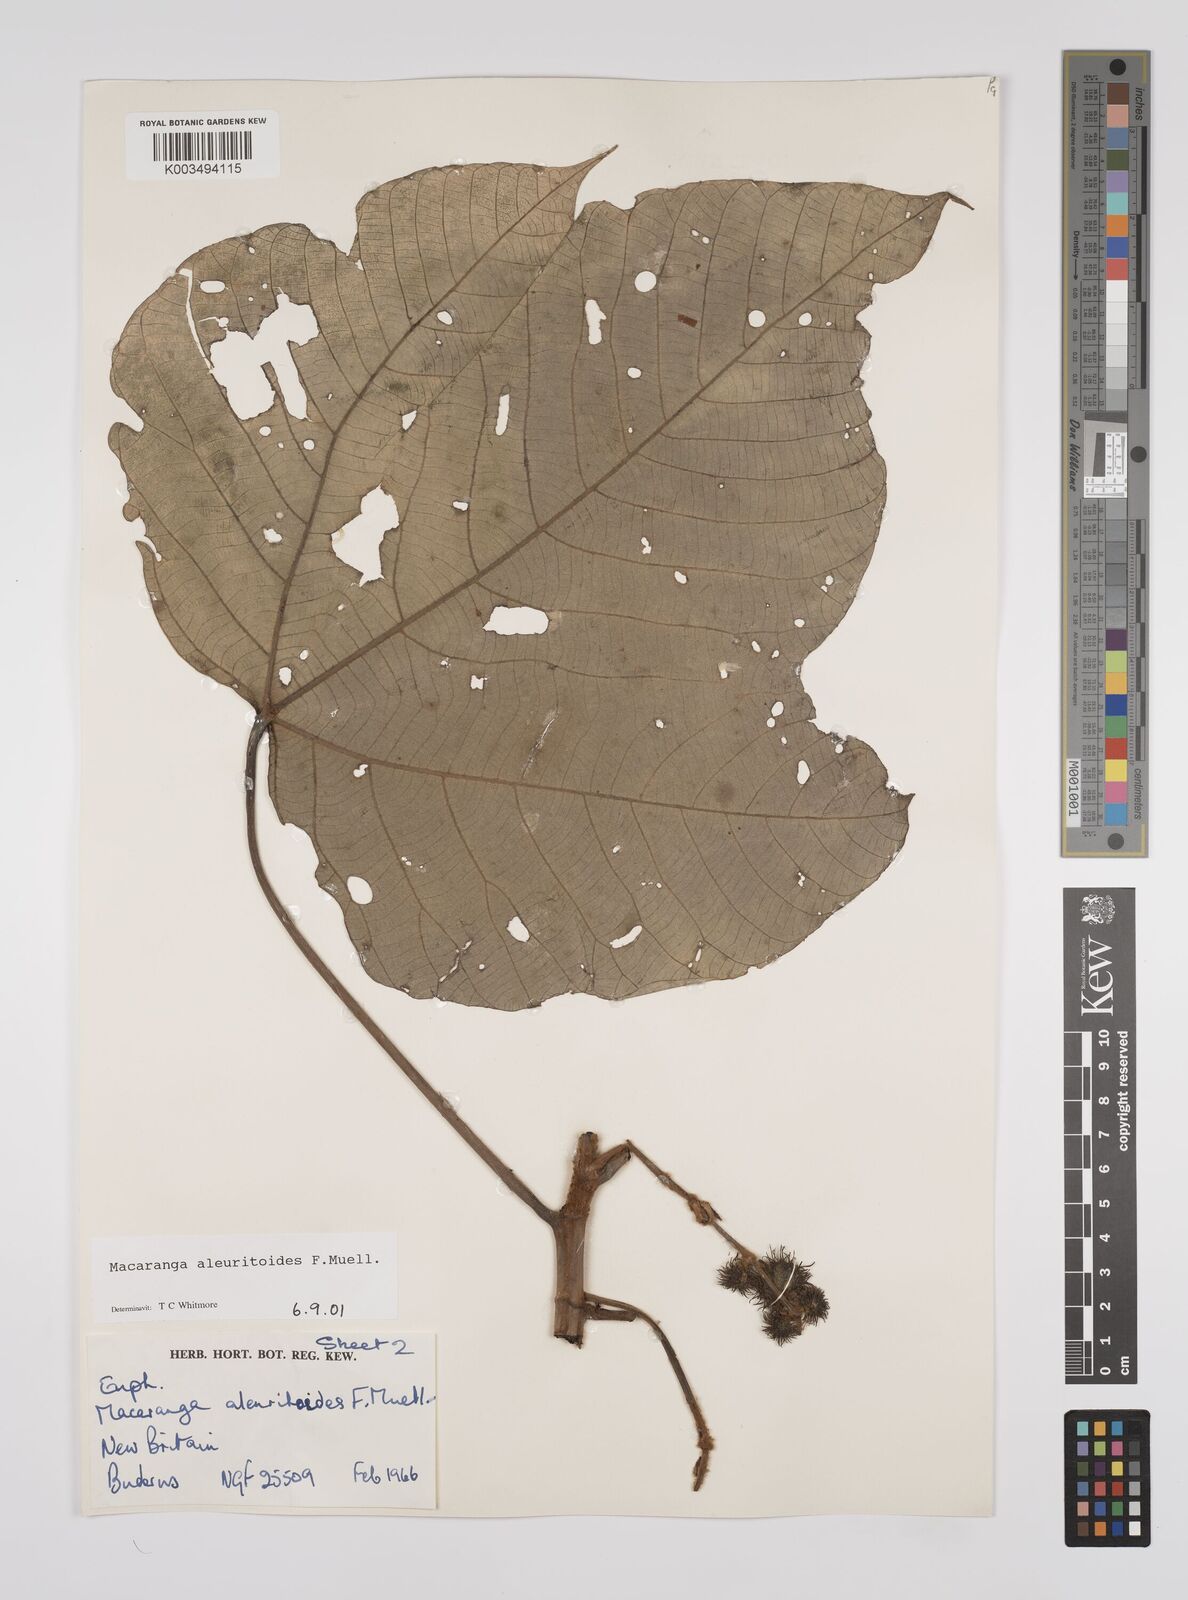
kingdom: Plantae
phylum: Tracheophyta
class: Magnoliopsida
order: Malpighiales
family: Euphorbiaceae
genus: Macaranga
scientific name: Macaranga aleuritoides
